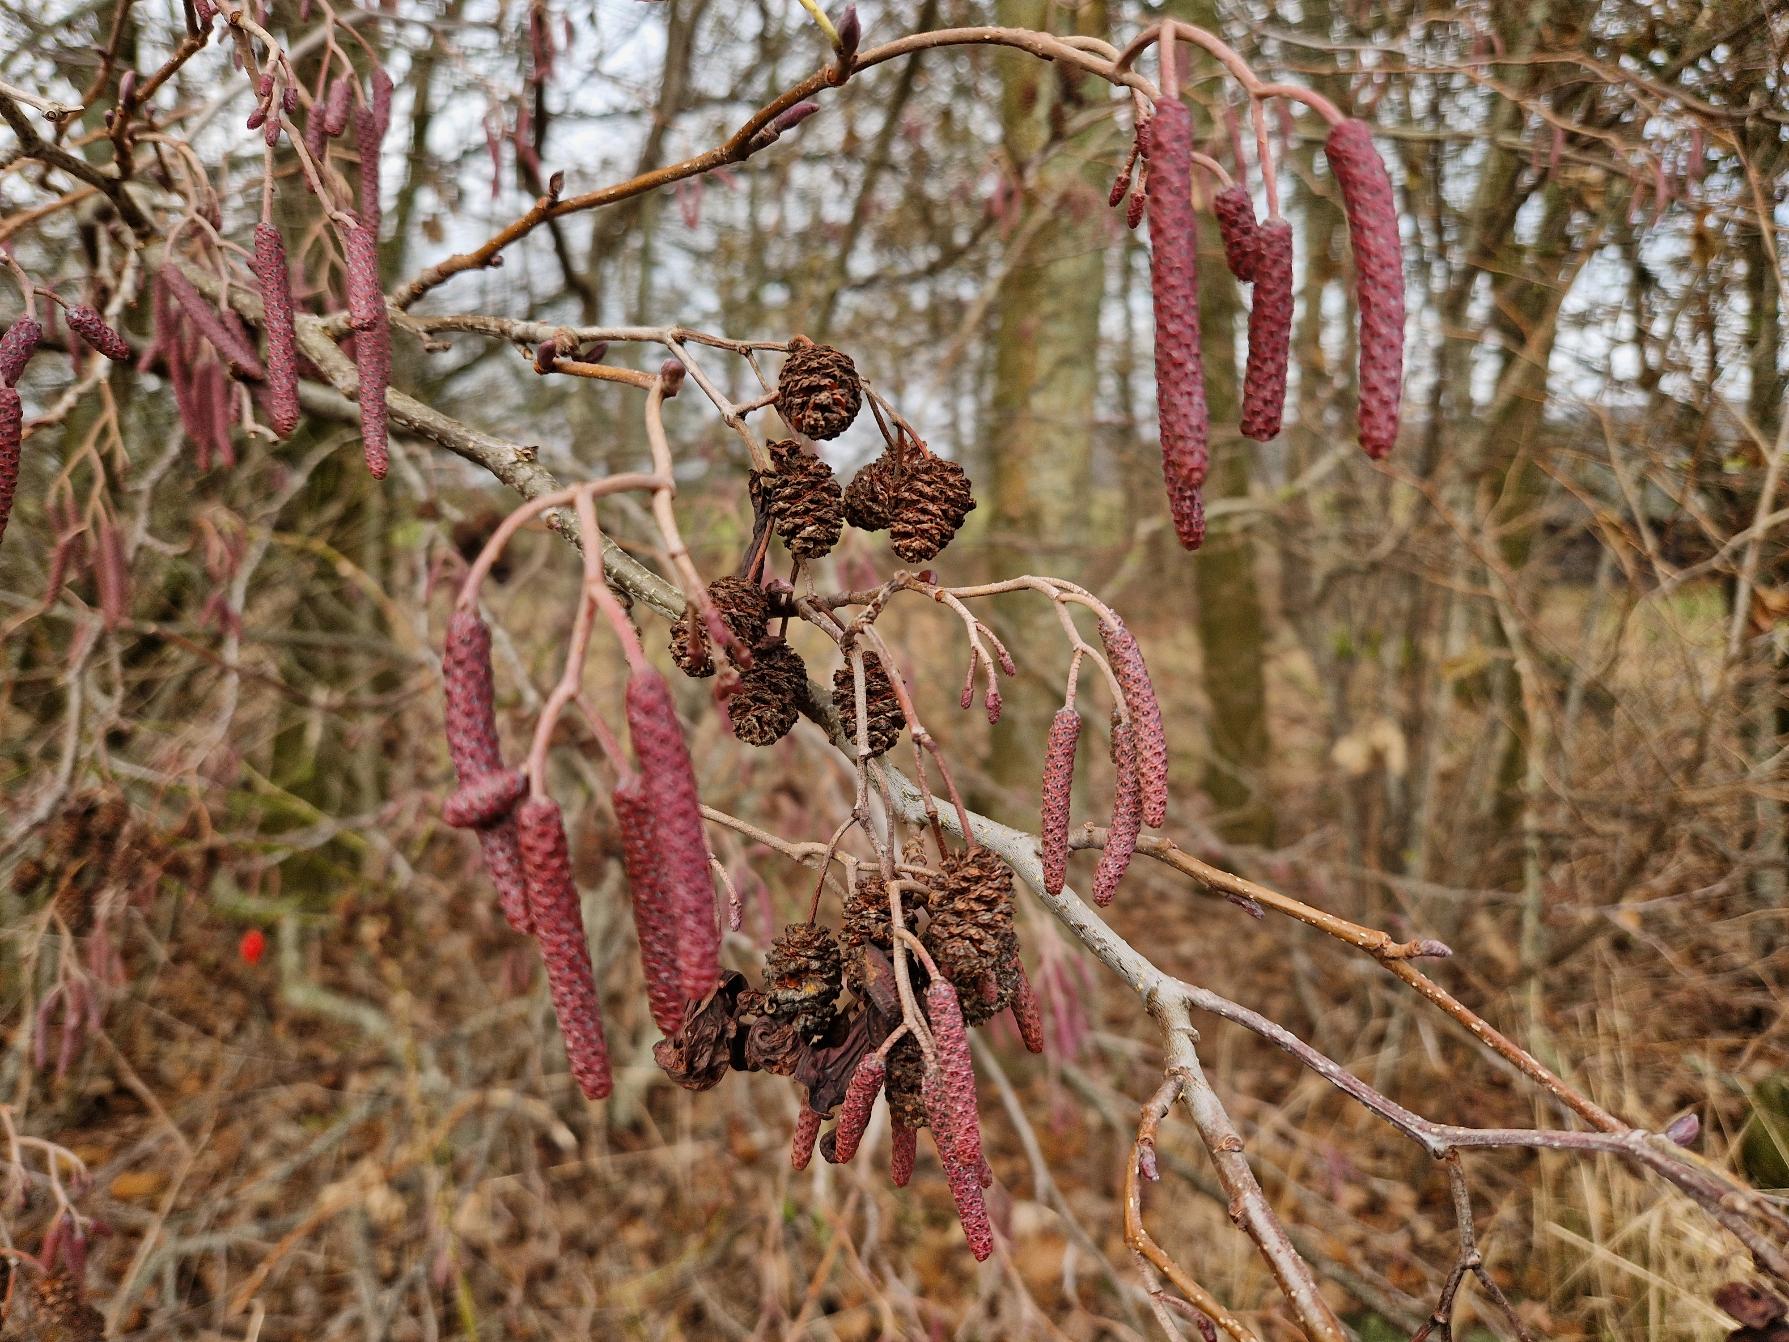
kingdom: Plantae
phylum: Tracheophyta
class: Magnoliopsida
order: Fagales
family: Betulaceae
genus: Alnus
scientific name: Alnus glutinosa
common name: Rød-el
